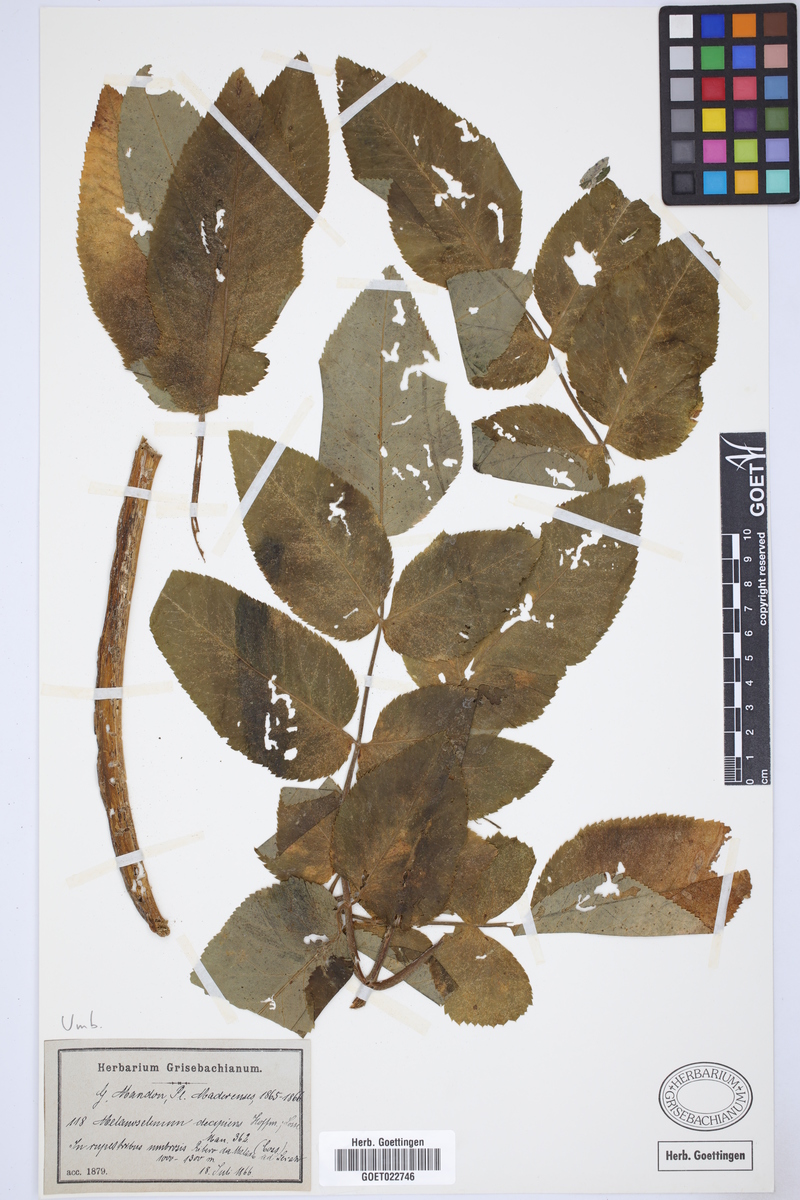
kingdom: Plantae
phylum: Tracheophyta
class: Magnoliopsida
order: Apiales
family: Apiaceae
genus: Daucus
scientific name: Daucus decipiens
